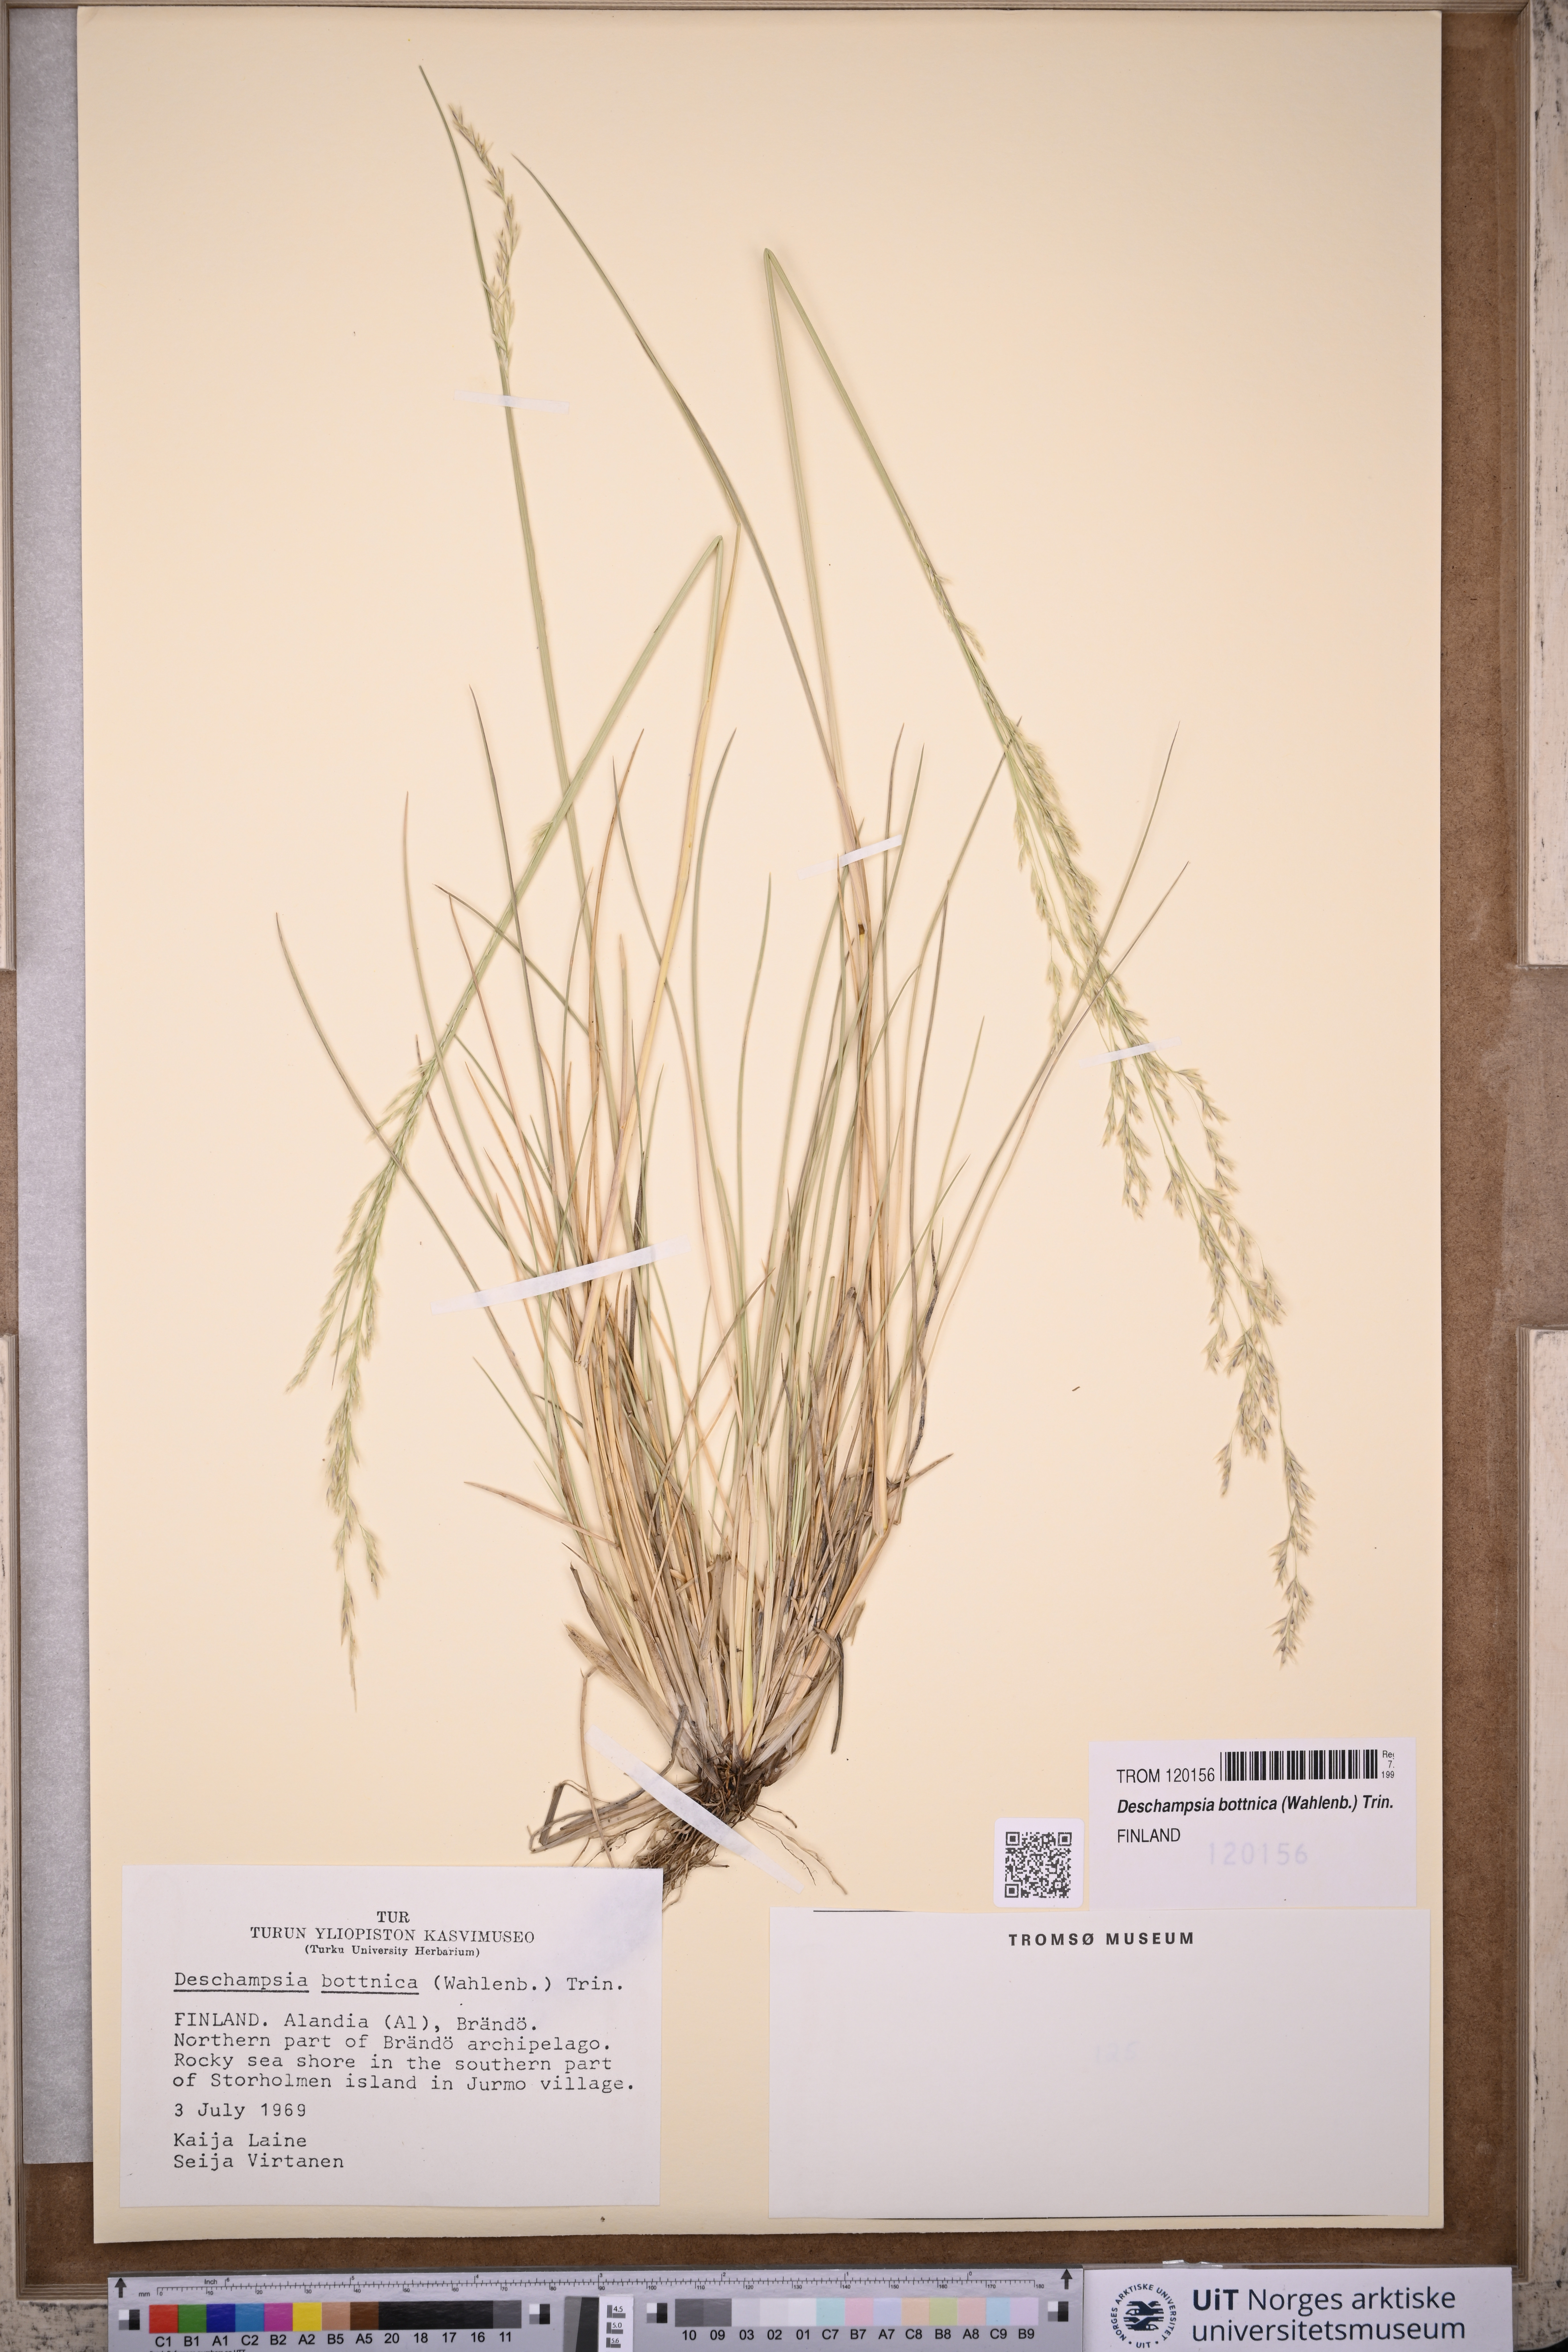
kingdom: Plantae
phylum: Tracheophyta
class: Liliopsida
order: Poales
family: Poaceae
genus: Deschampsia
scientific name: Deschampsia cespitosa
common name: Tufted hair-grass
